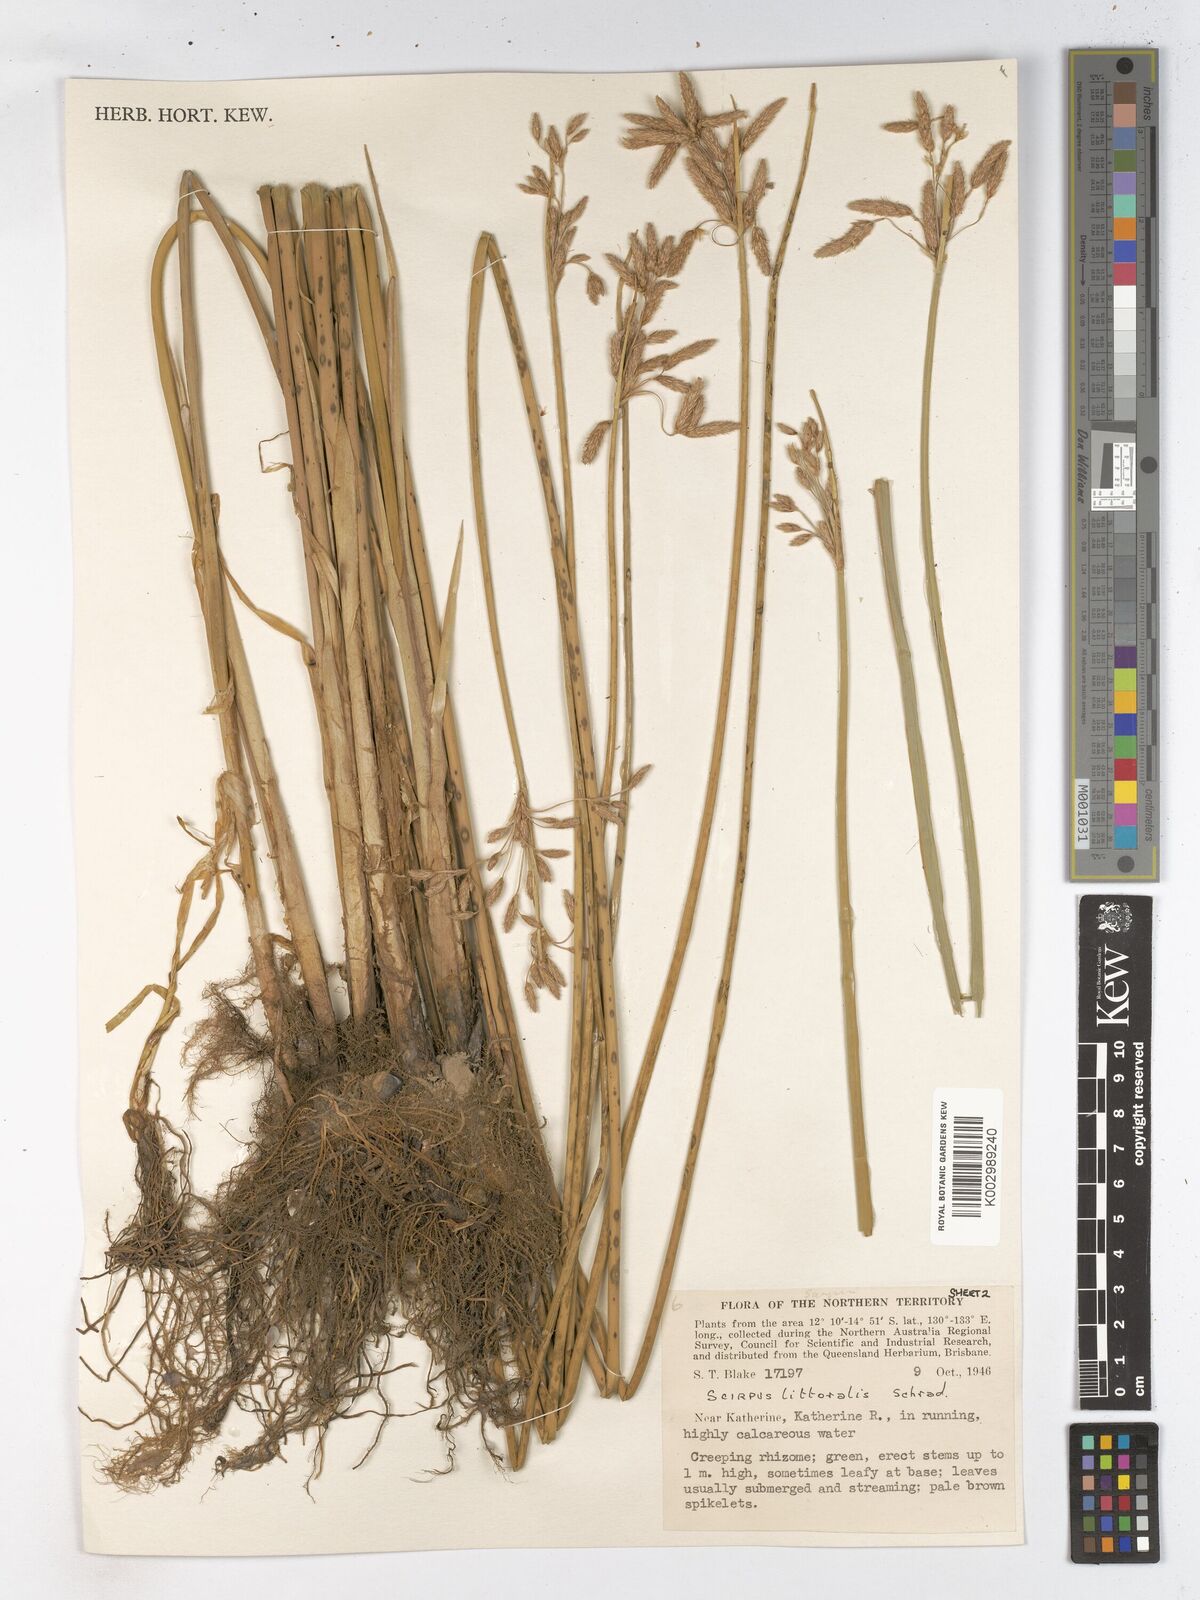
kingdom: Plantae
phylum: Tracheophyta
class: Liliopsida
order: Poales
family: Cyperaceae
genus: Schoenoplectus
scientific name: Schoenoplectus litoralis
